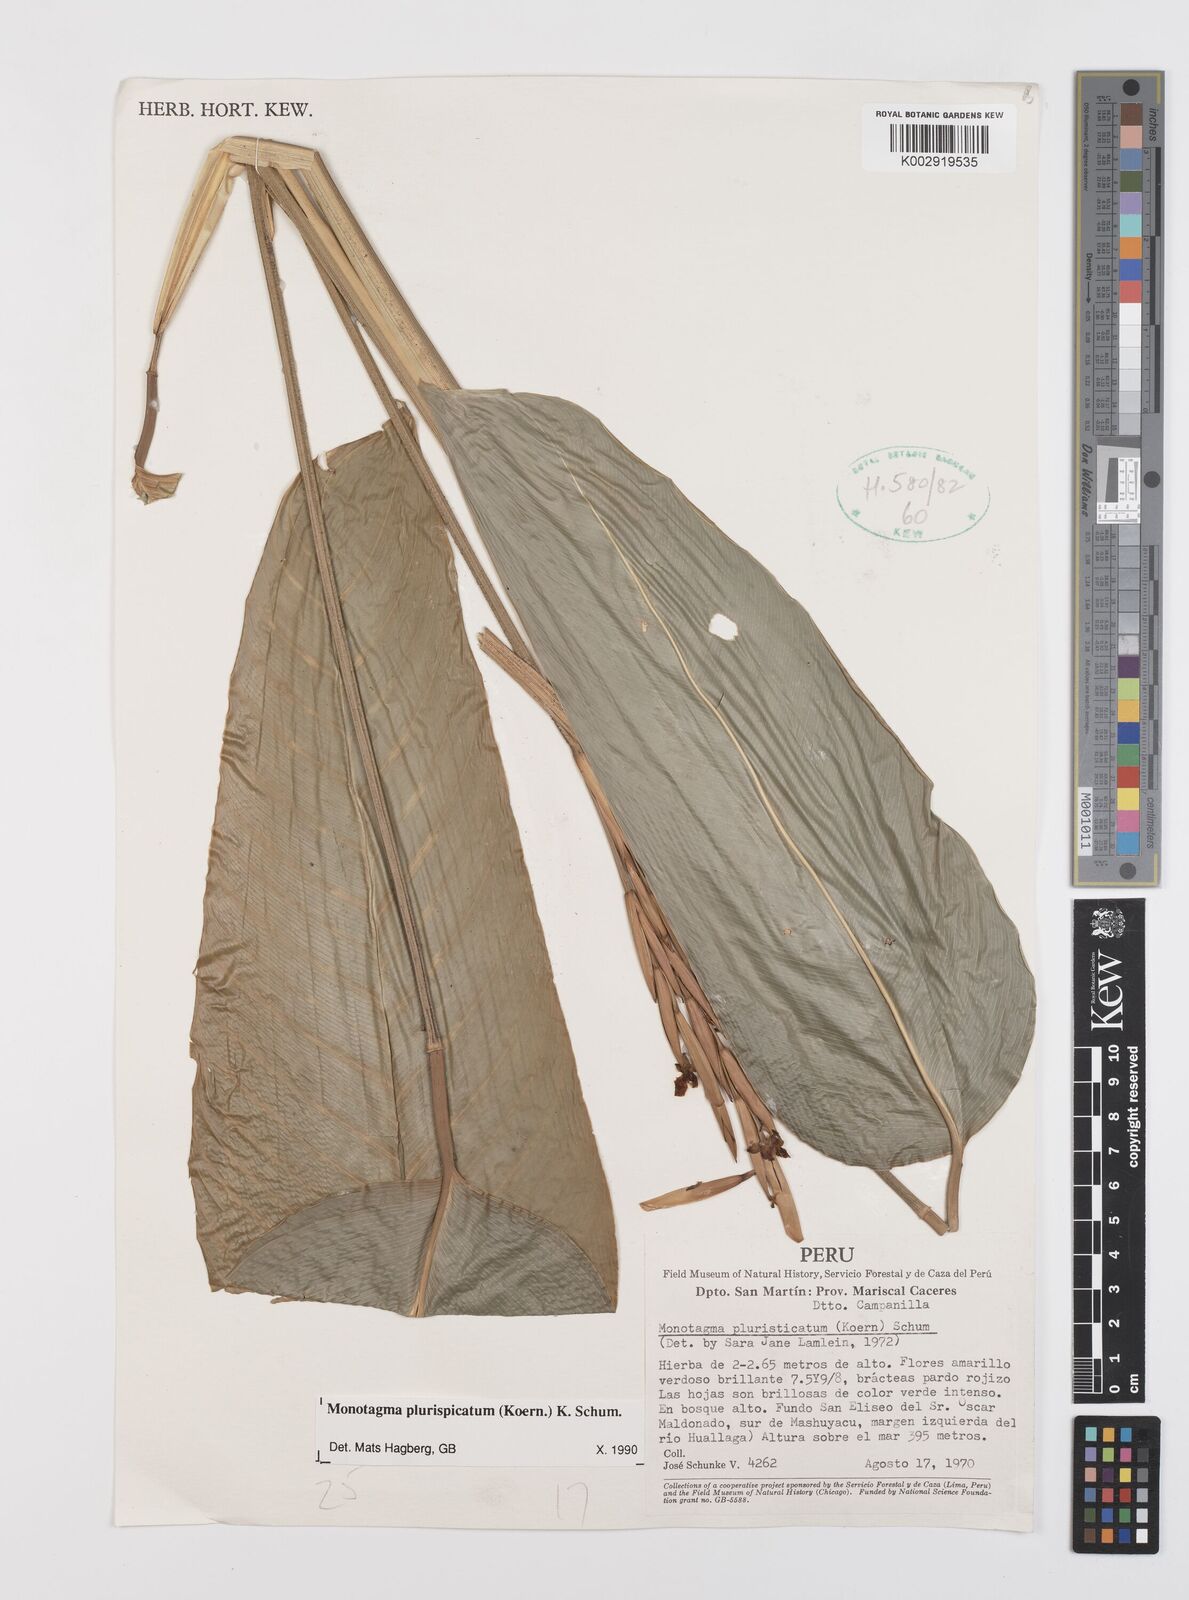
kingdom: Plantae
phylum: Tracheophyta
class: Liliopsida
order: Zingiberales
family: Marantaceae
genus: Monotagma
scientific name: Monotagma plurispicatum
